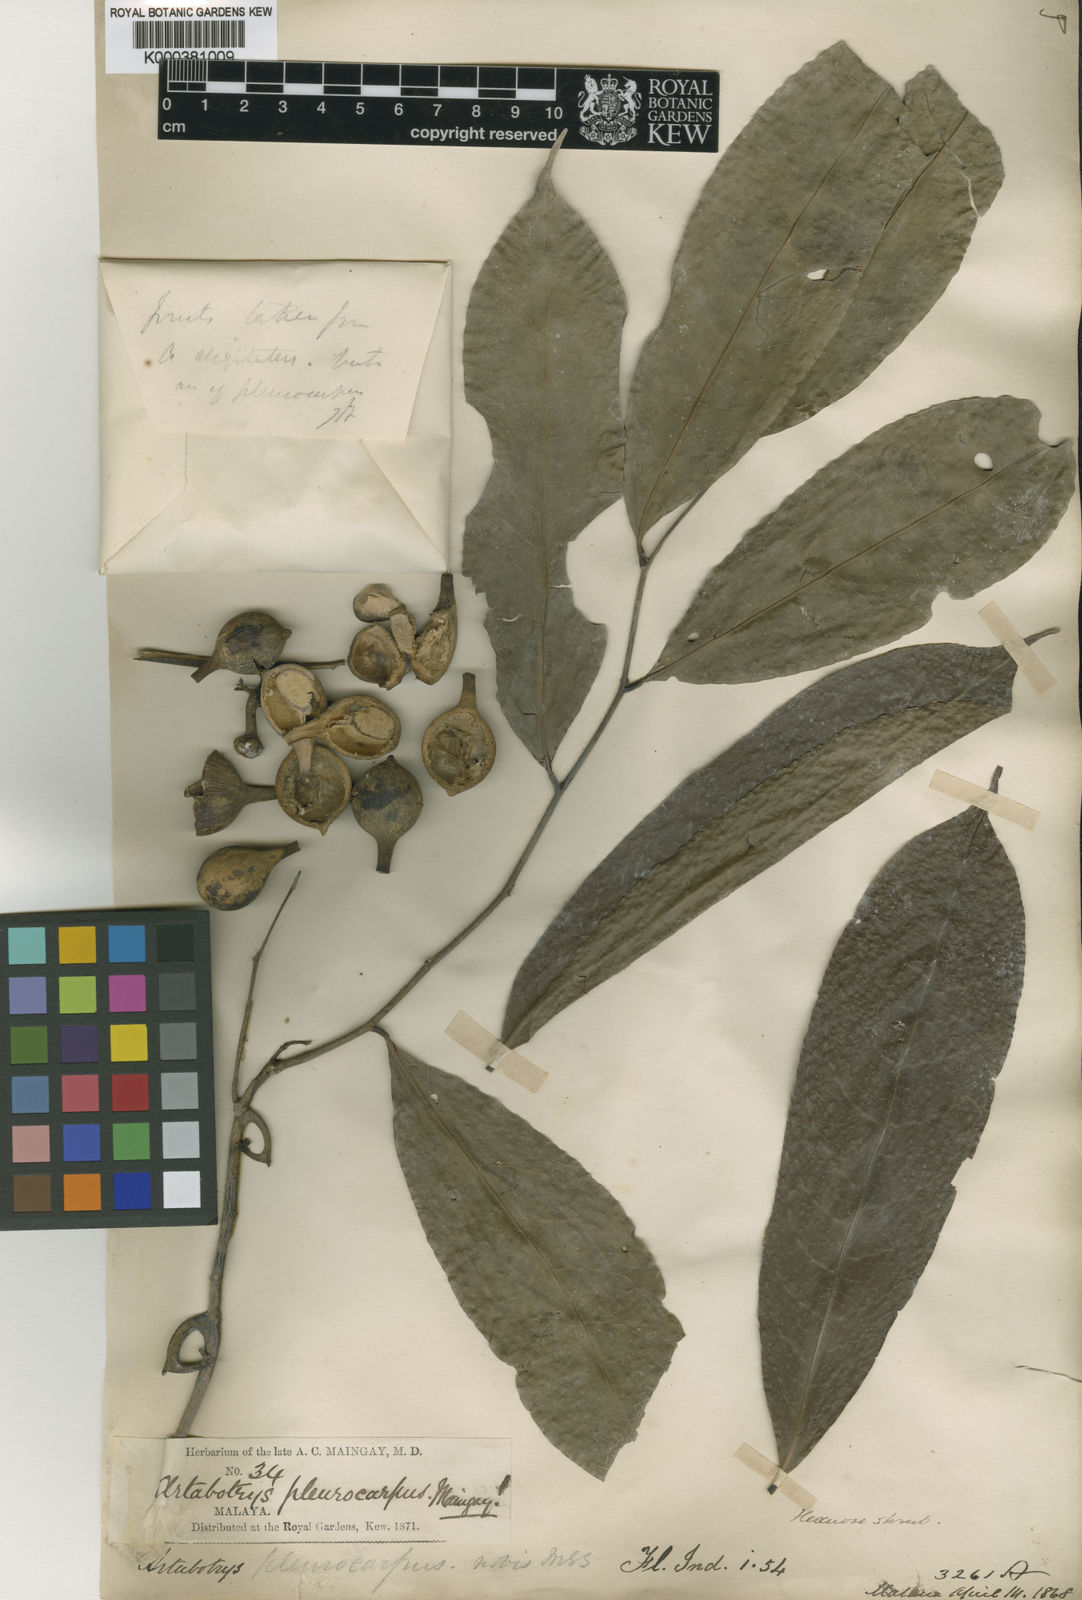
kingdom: Plantae
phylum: Tracheophyta
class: Magnoliopsida
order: Magnoliales
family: Annonaceae
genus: Artabotrys
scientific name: Artabotrys pleurocarpus
